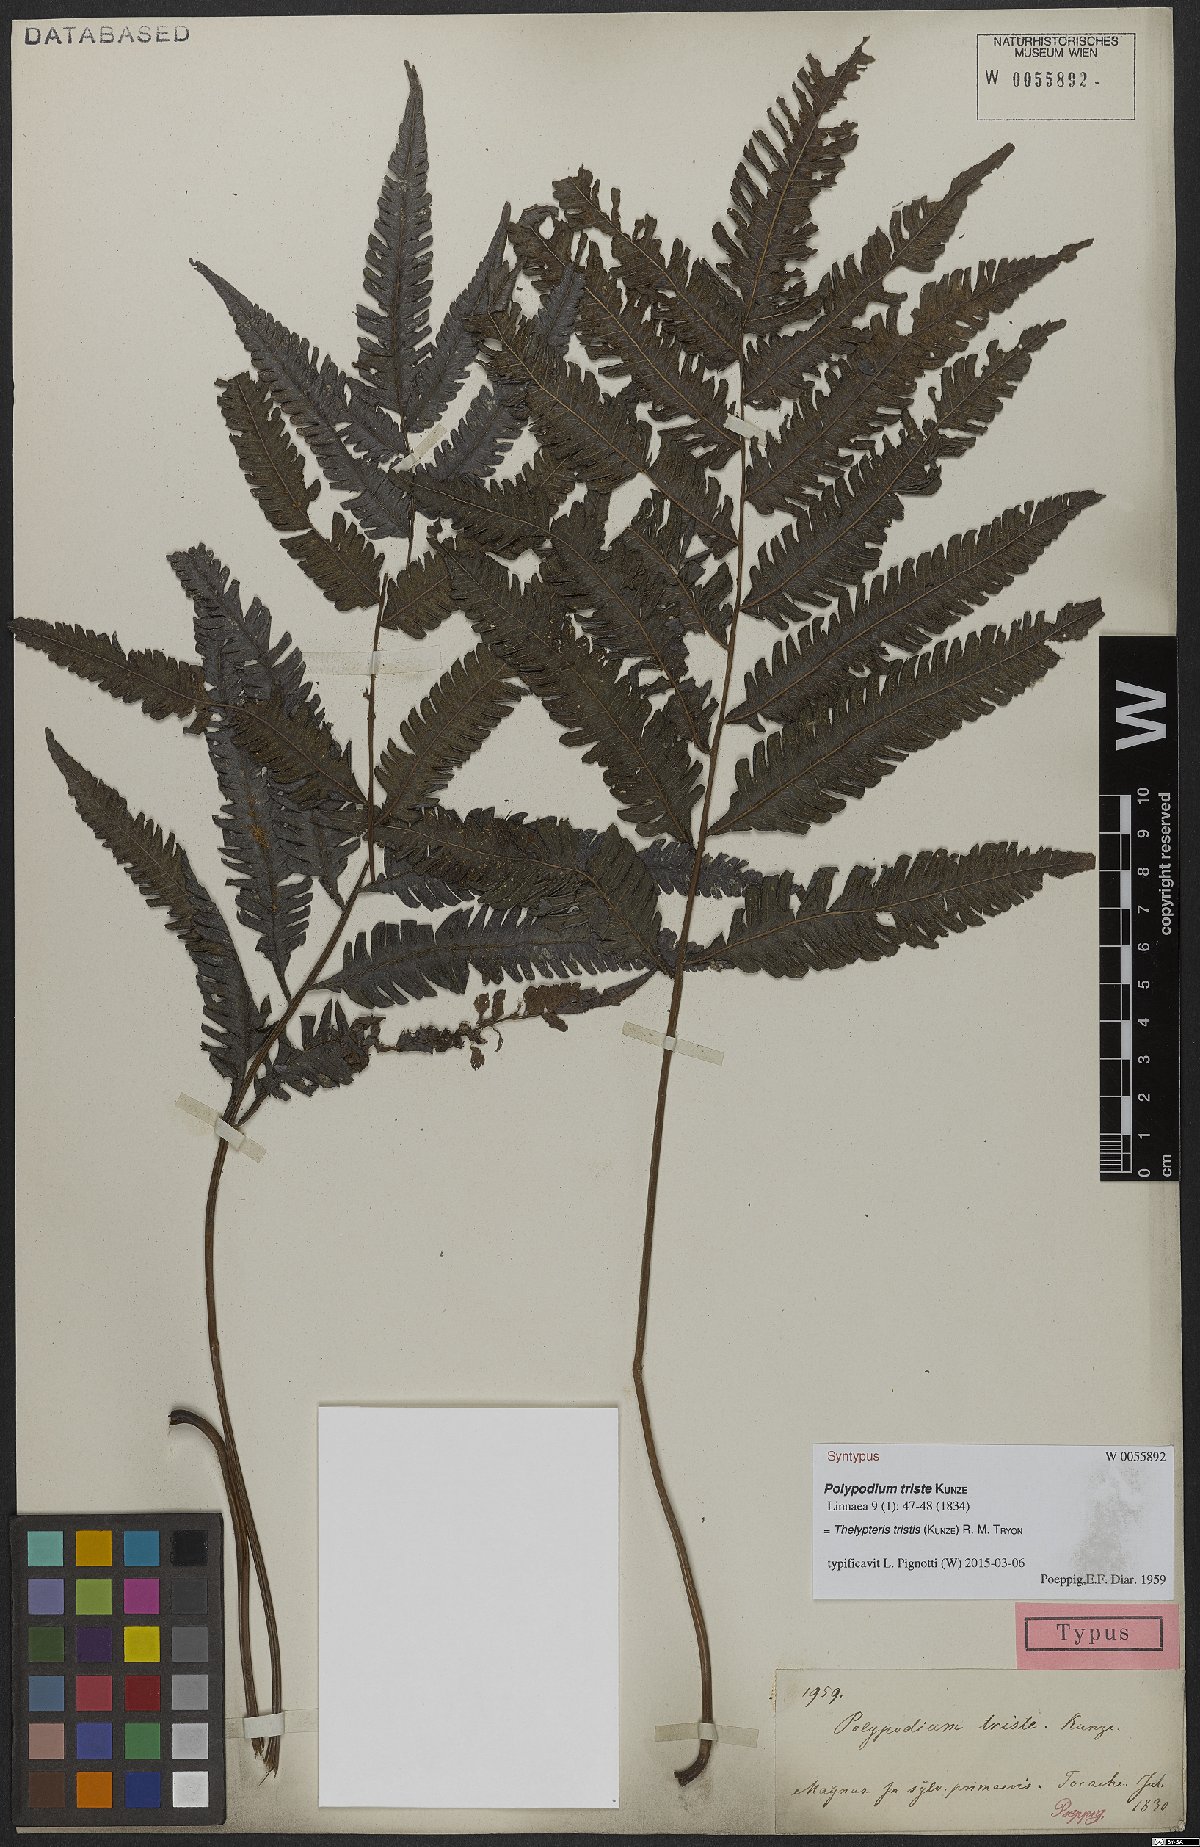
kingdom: Plantae
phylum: Tracheophyta
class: Polypodiopsida
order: Polypodiales
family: Thelypteridaceae
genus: Goniopteris
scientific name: Goniopteris tristis
